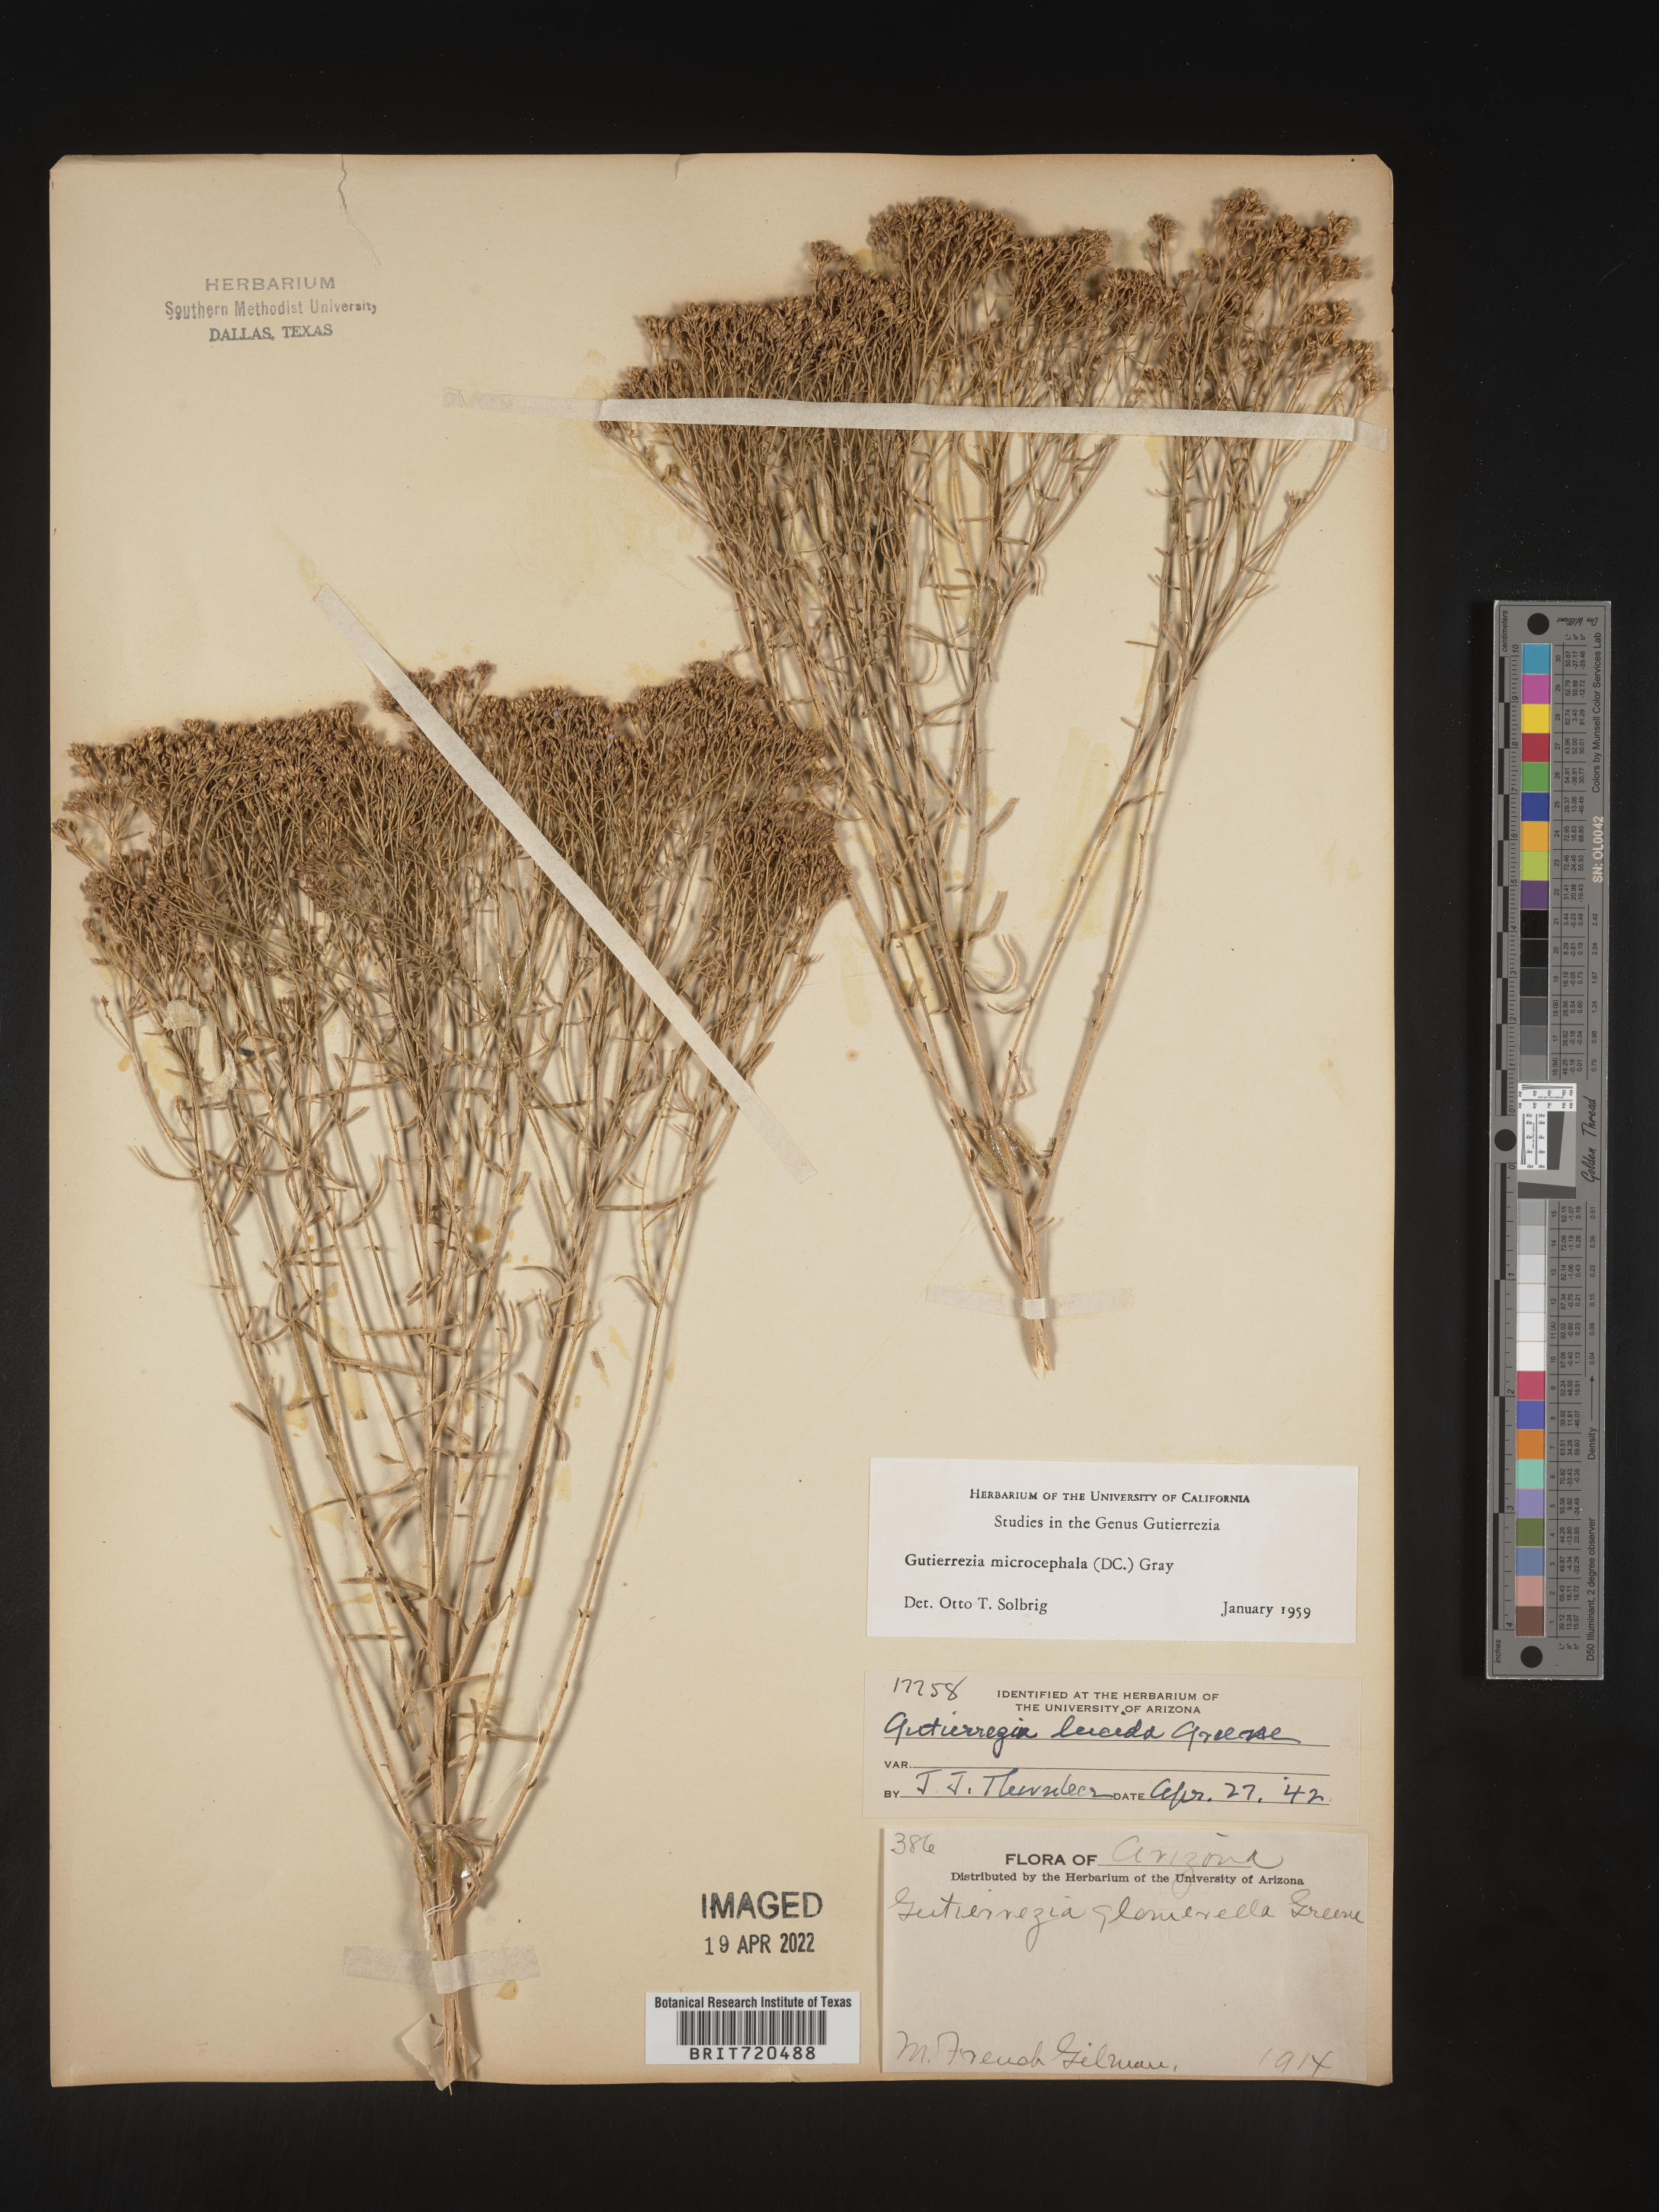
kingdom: Plantae
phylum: Tracheophyta
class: Magnoliopsida
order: Asterales
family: Asteraceae
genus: Gutierrezia
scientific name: Gutierrezia microcephala
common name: Thread snakeweed
